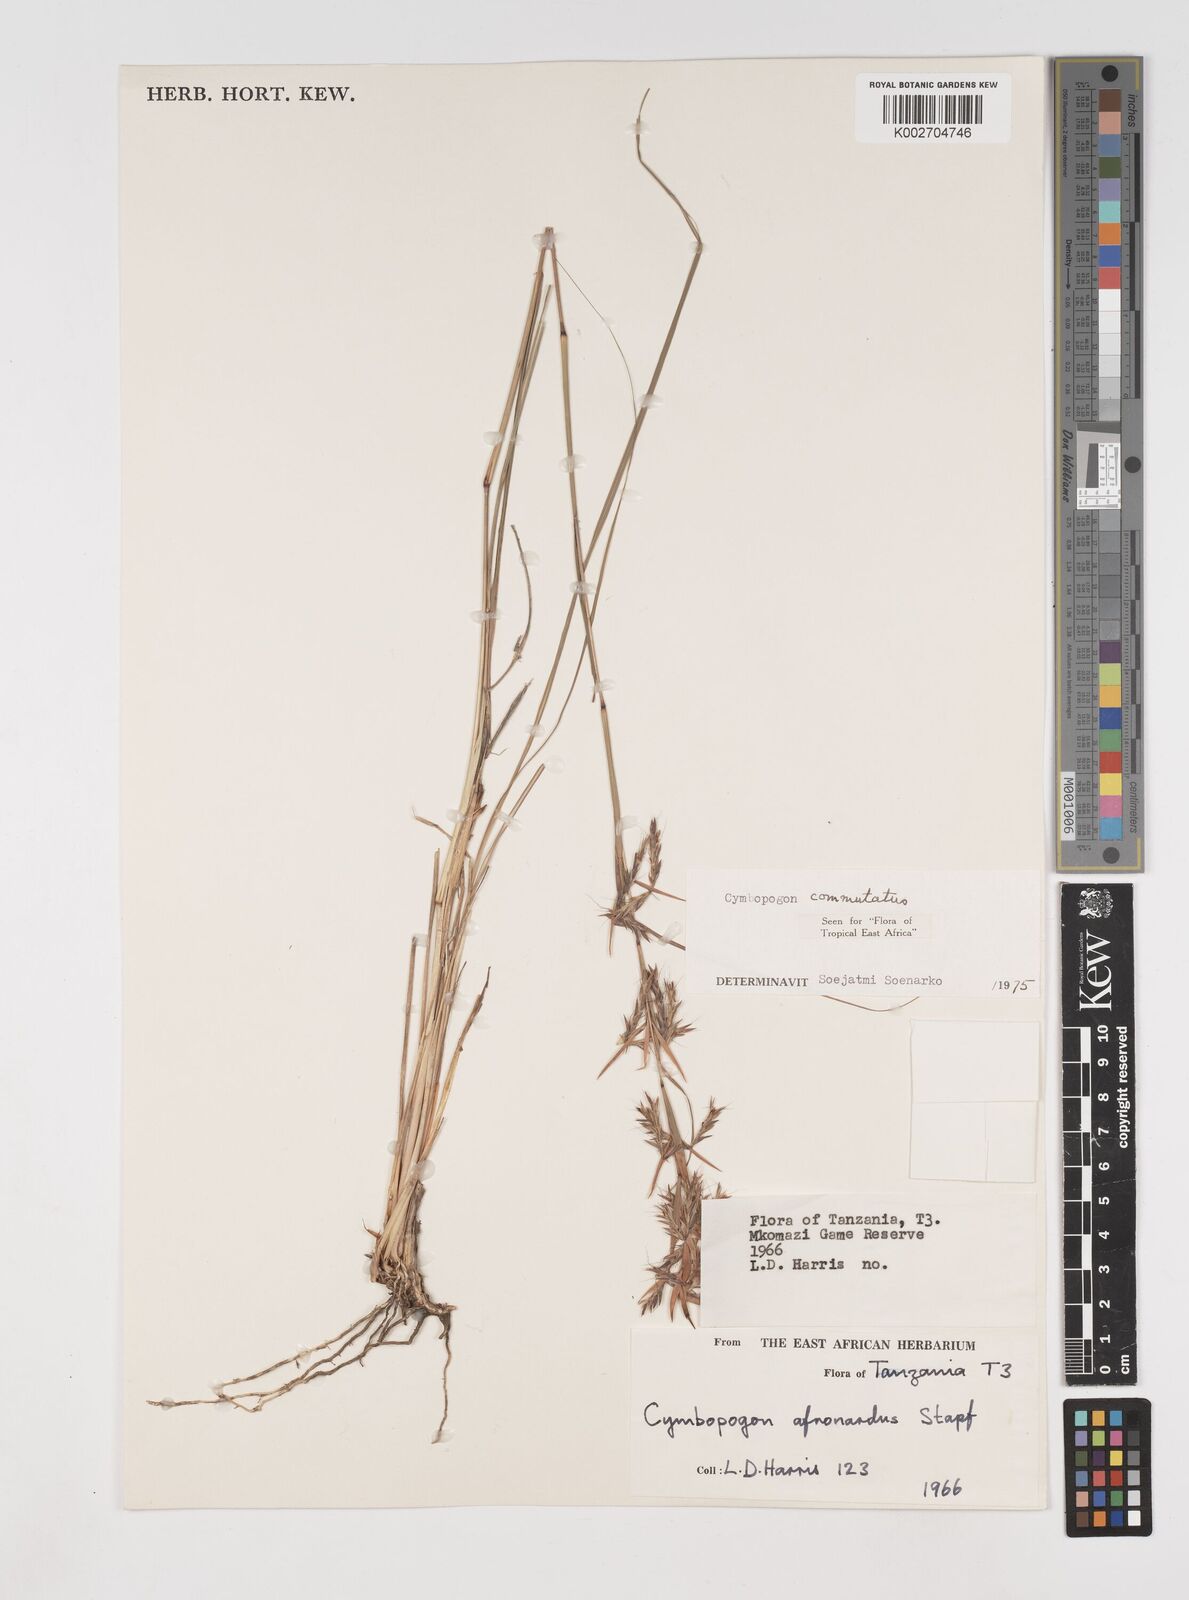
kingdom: Plantae
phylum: Tracheophyta
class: Liliopsida
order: Poales
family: Poaceae
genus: Cymbopogon
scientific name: Cymbopogon commutatus
